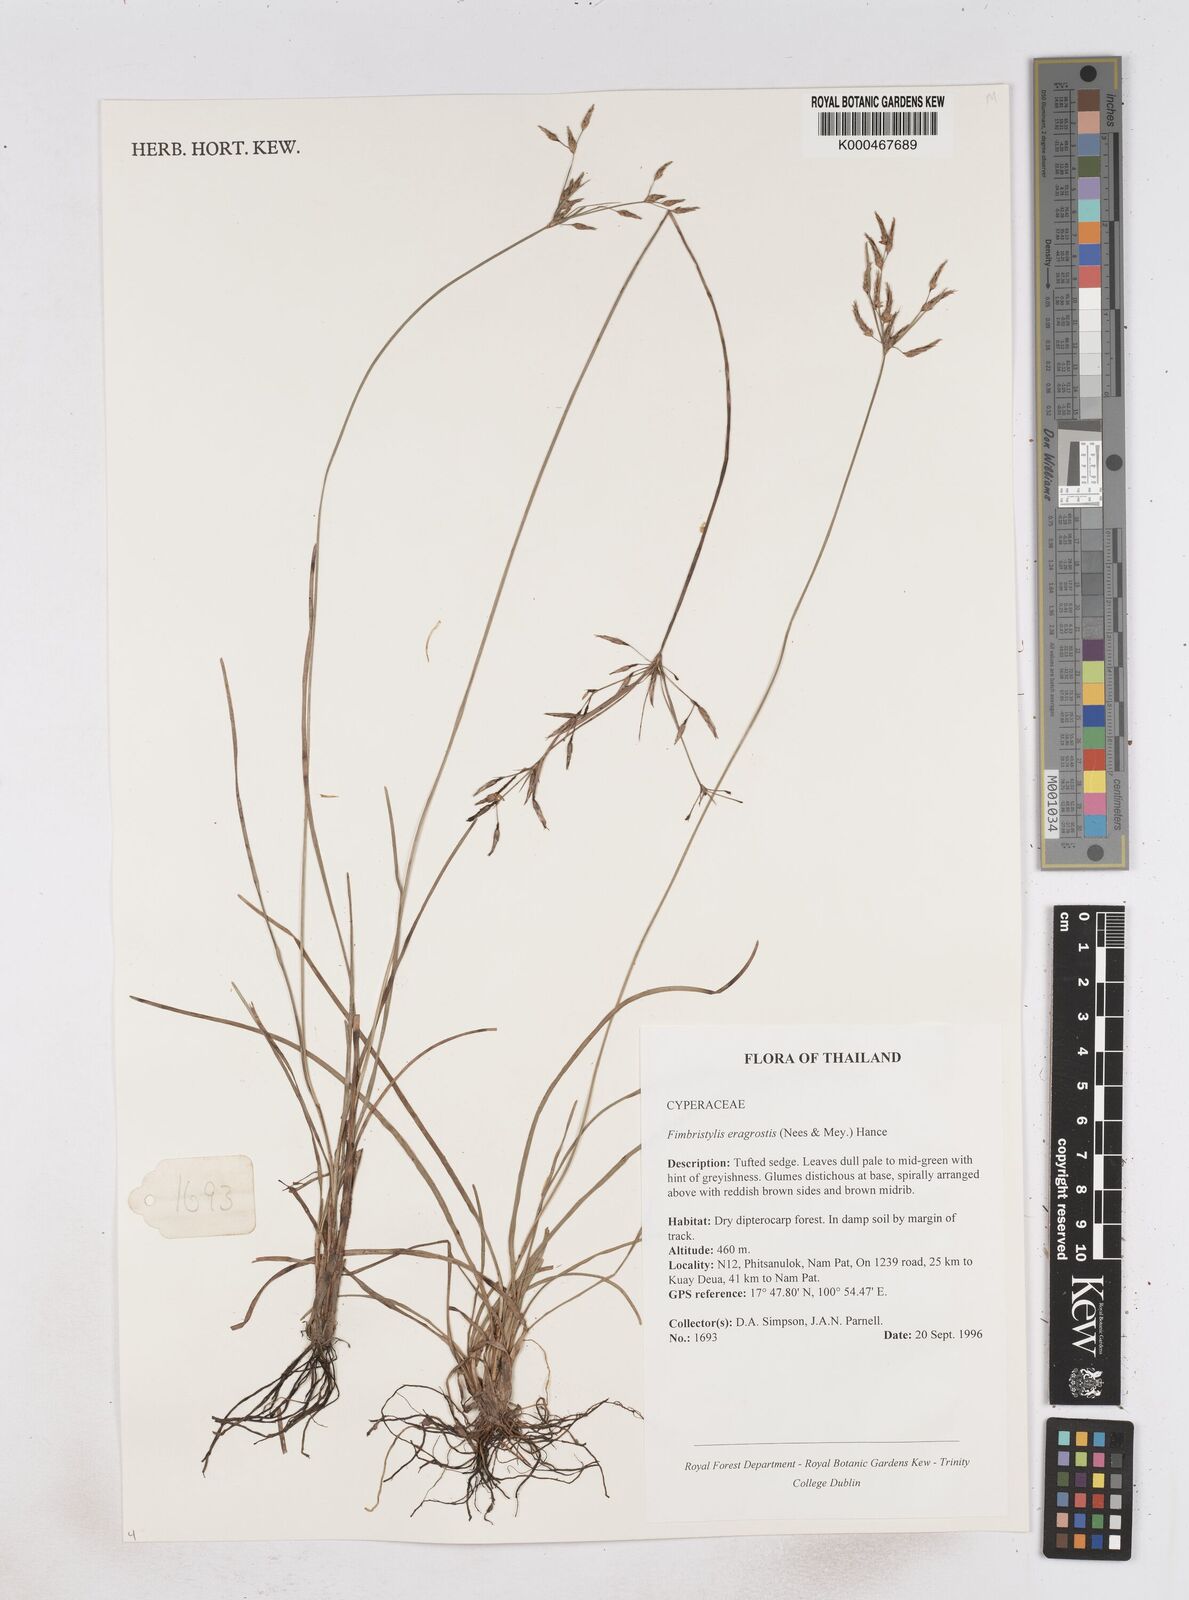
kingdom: Plantae
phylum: Tracheophyta
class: Liliopsida
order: Poales
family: Cyperaceae
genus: Fimbristylis
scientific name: Fimbristylis dura
